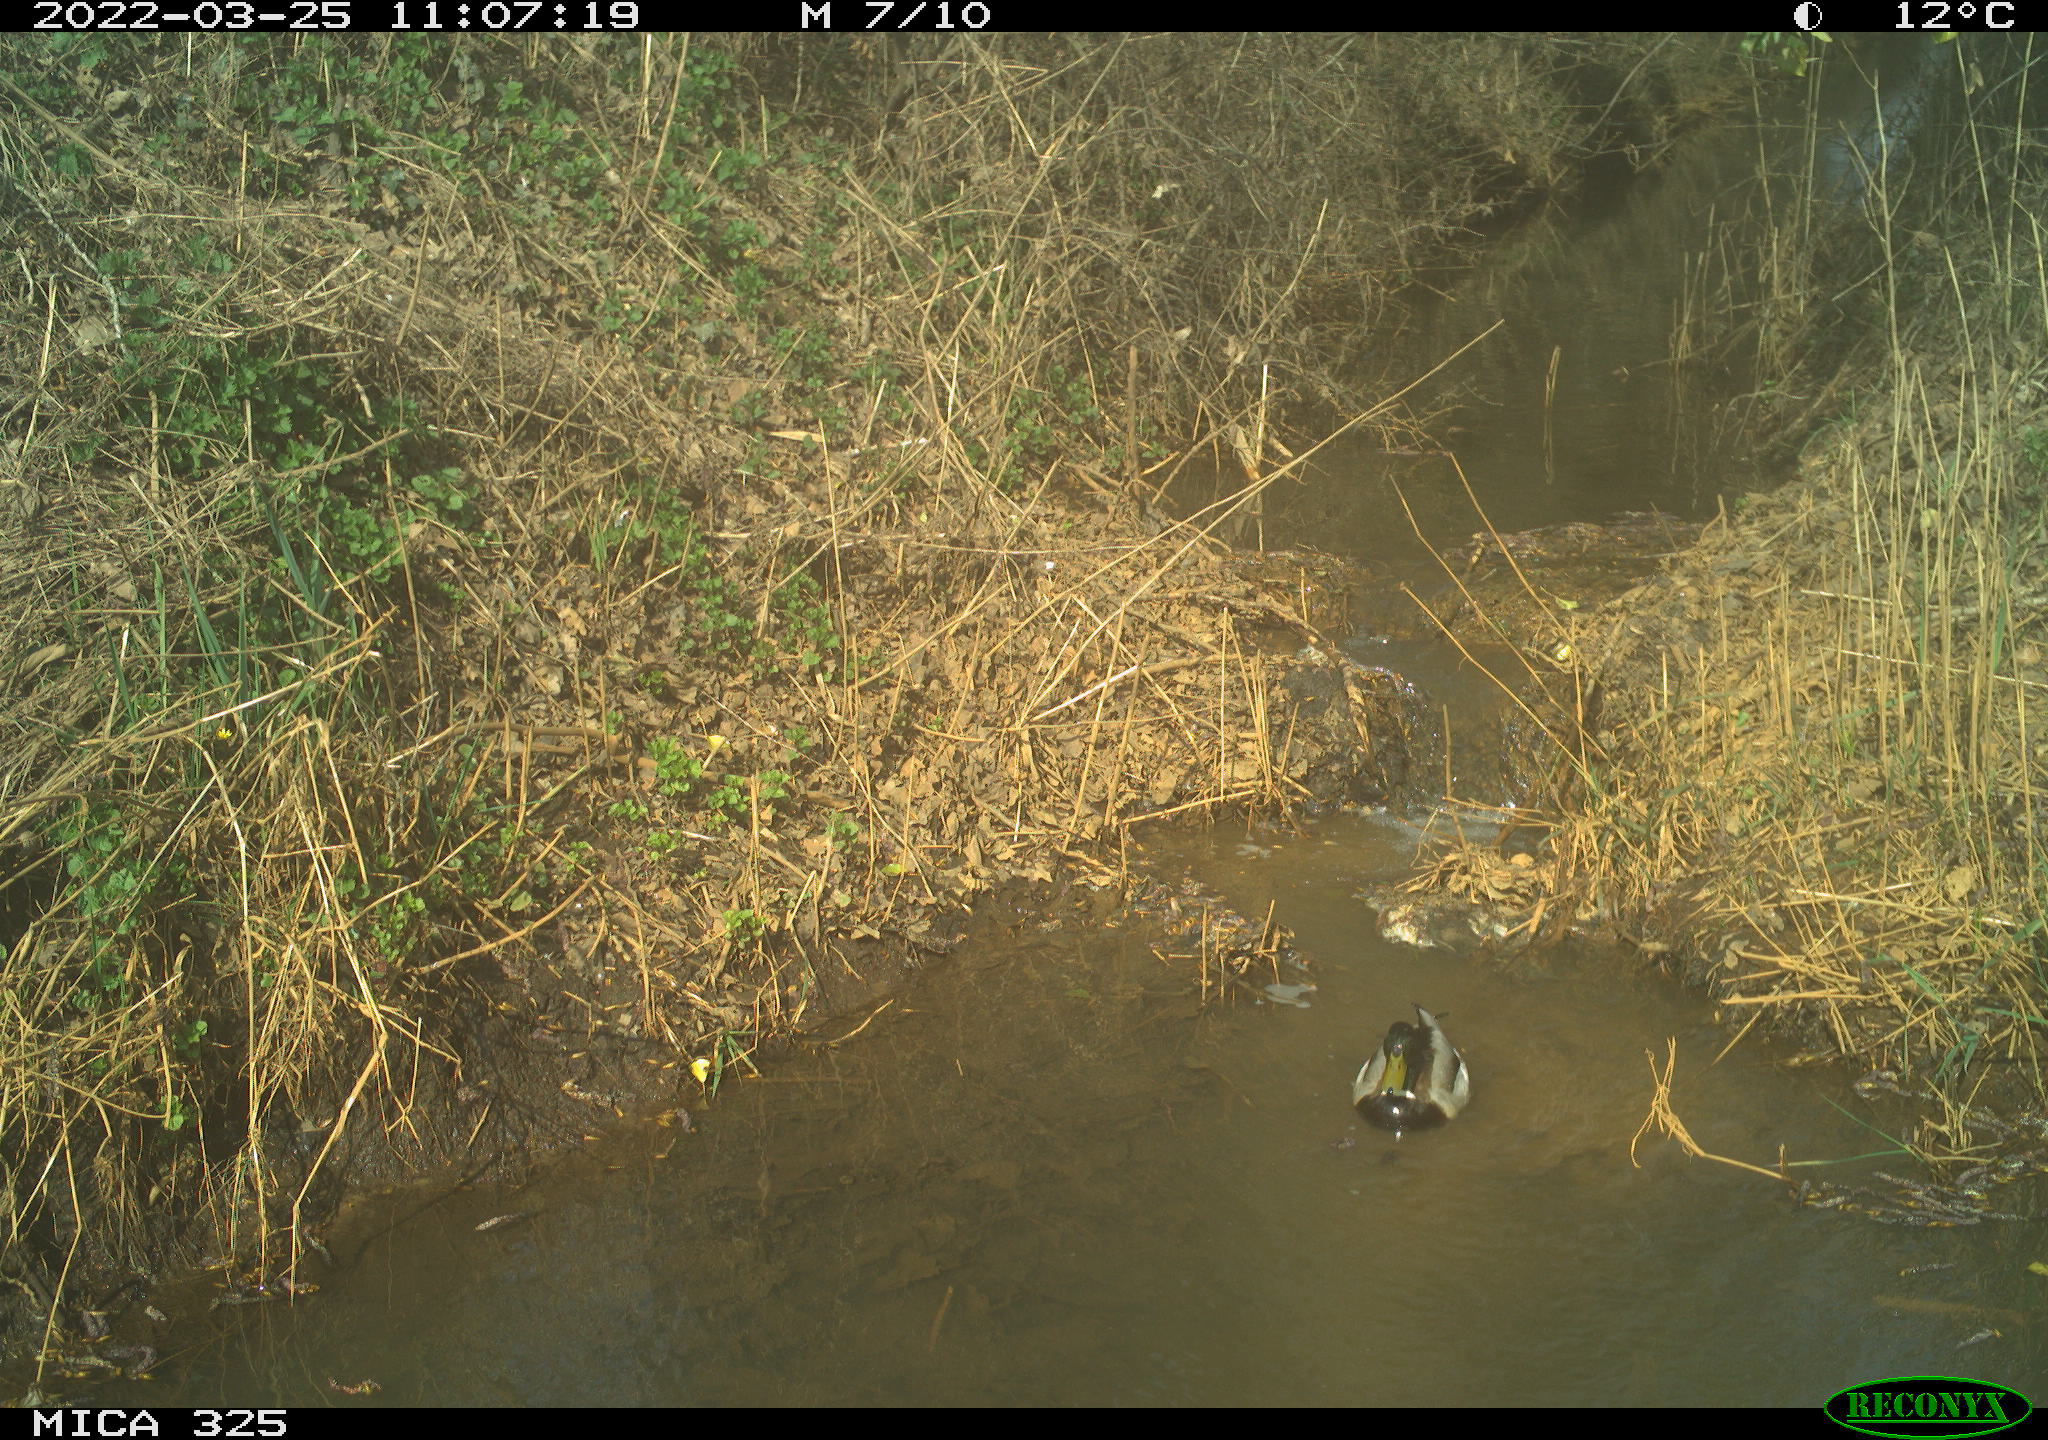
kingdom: Animalia
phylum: Chordata
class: Aves
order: Anseriformes
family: Anatidae
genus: Anas
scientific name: Anas platyrhynchos
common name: Mallard
